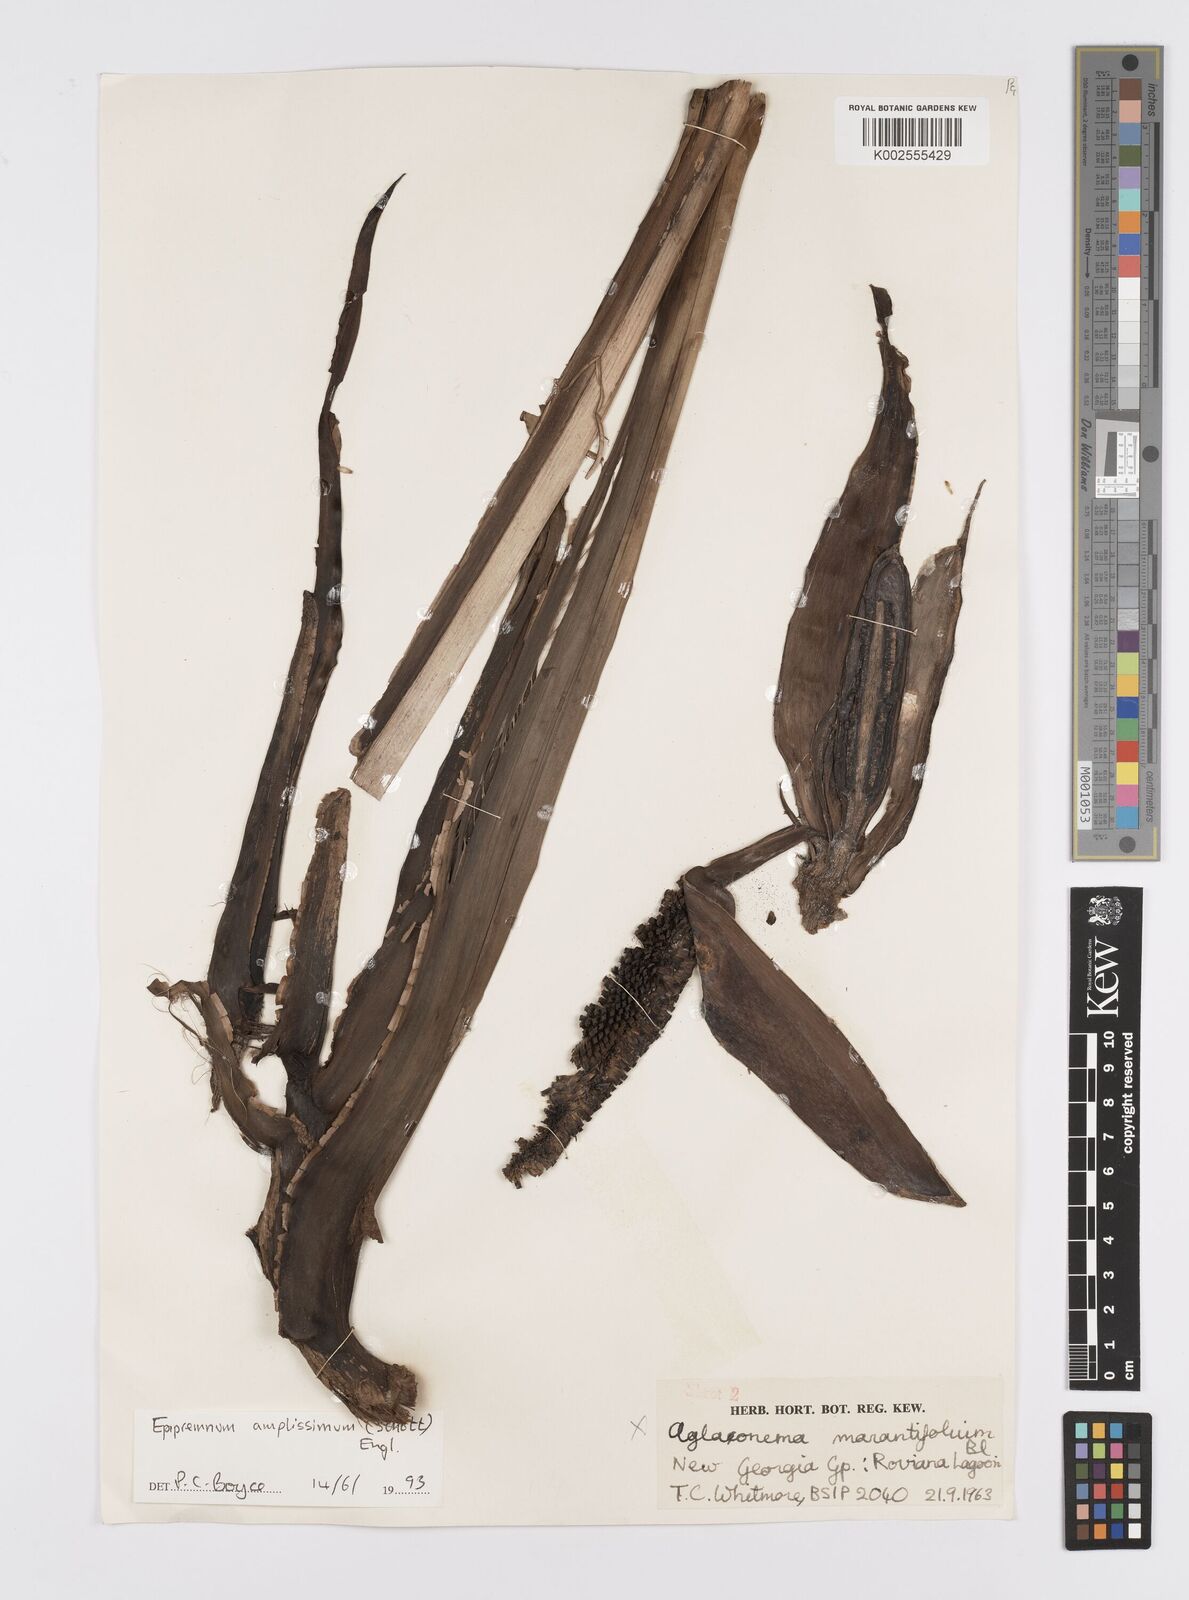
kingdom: Plantae
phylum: Tracheophyta
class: Liliopsida
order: Alismatales
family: Araceae
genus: Epipremnum
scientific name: Epipremnum amplissimum
